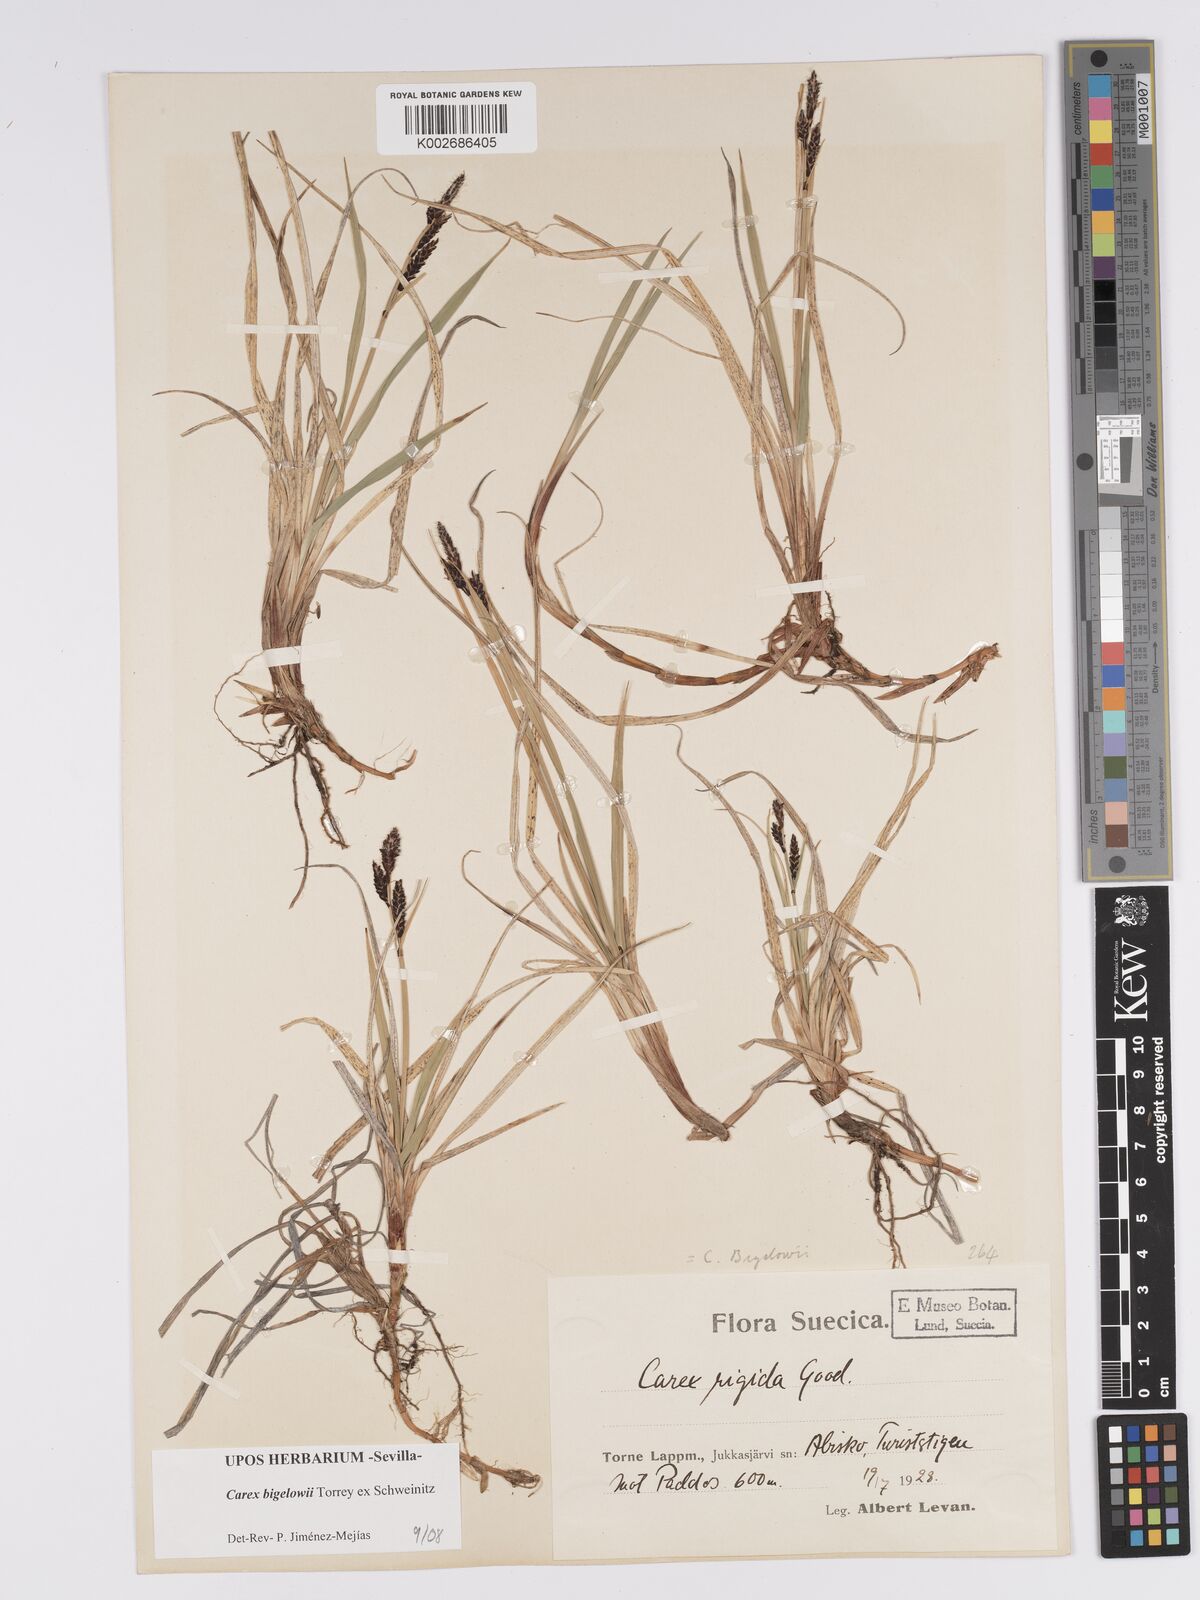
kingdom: Plantae
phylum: Tracheophyta
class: Liliopsida
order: Poales
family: Cyperaceae
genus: Carex
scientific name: Carex bigelowii
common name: Stiff sedge
